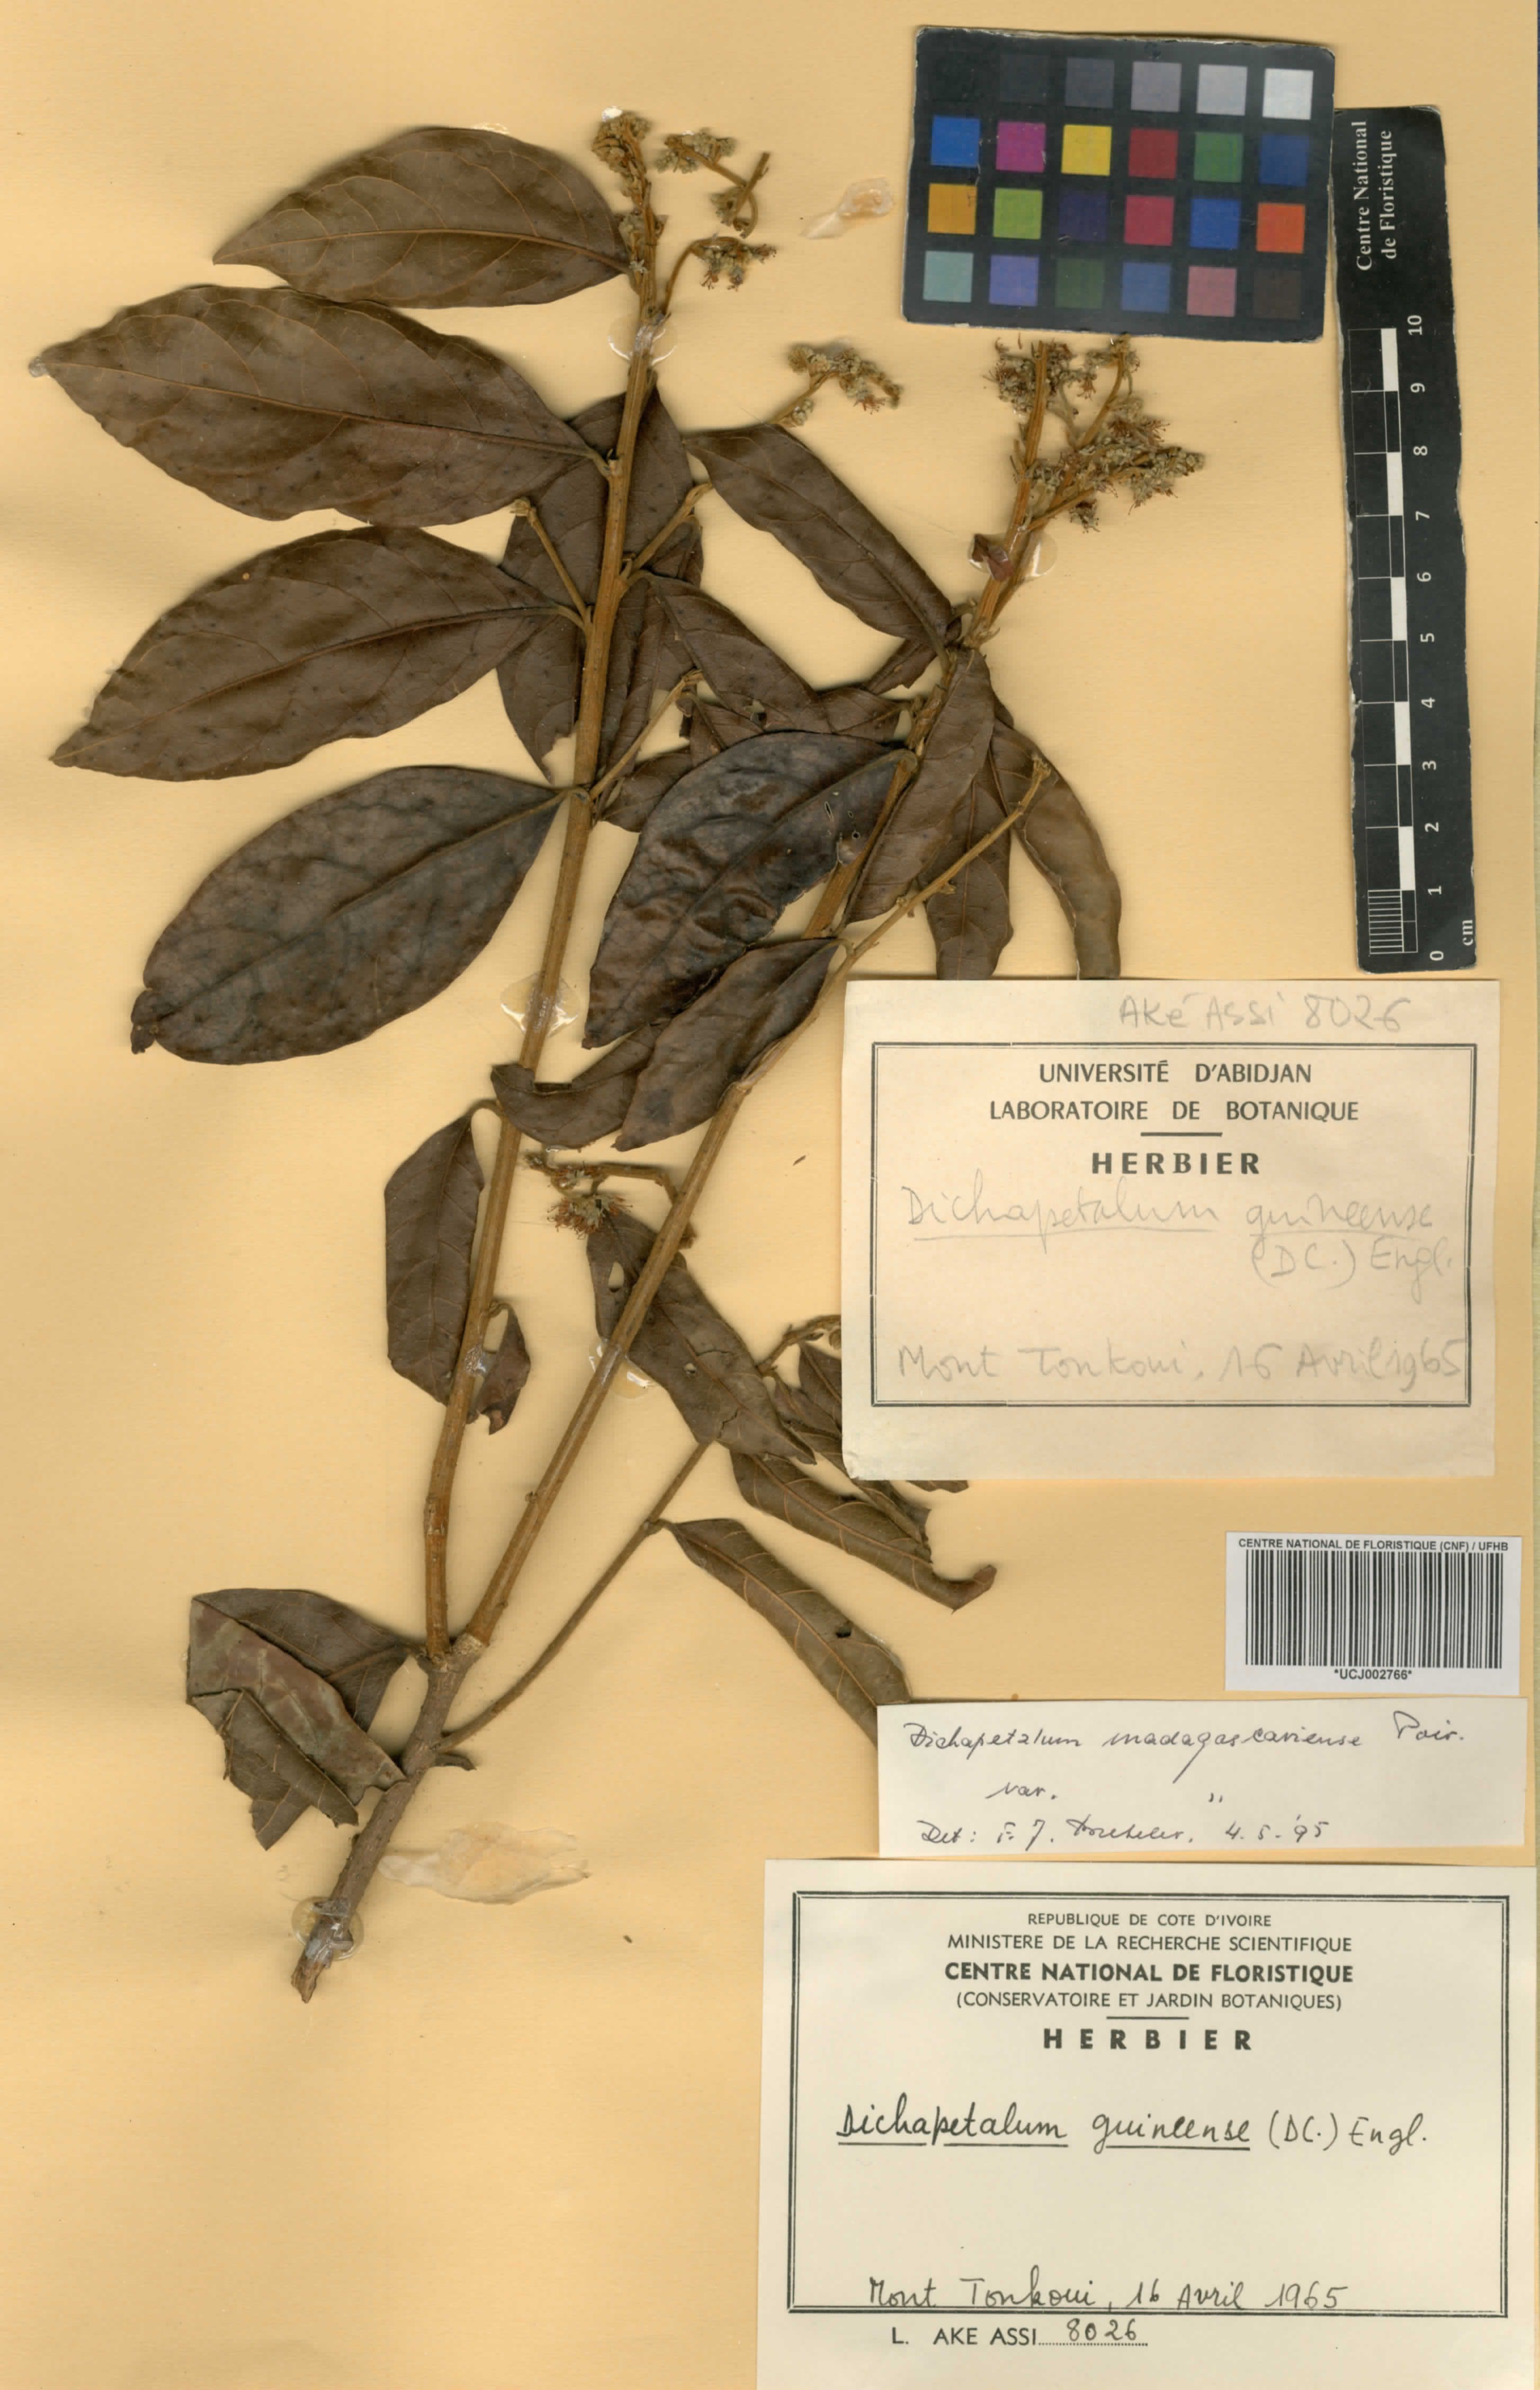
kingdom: Plantae
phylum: Tracheophyta
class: Magnoliopsida
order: Malpighiales
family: Dichapetalaceae
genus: Dichapetalum
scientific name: Dichapetalum madagascariense
